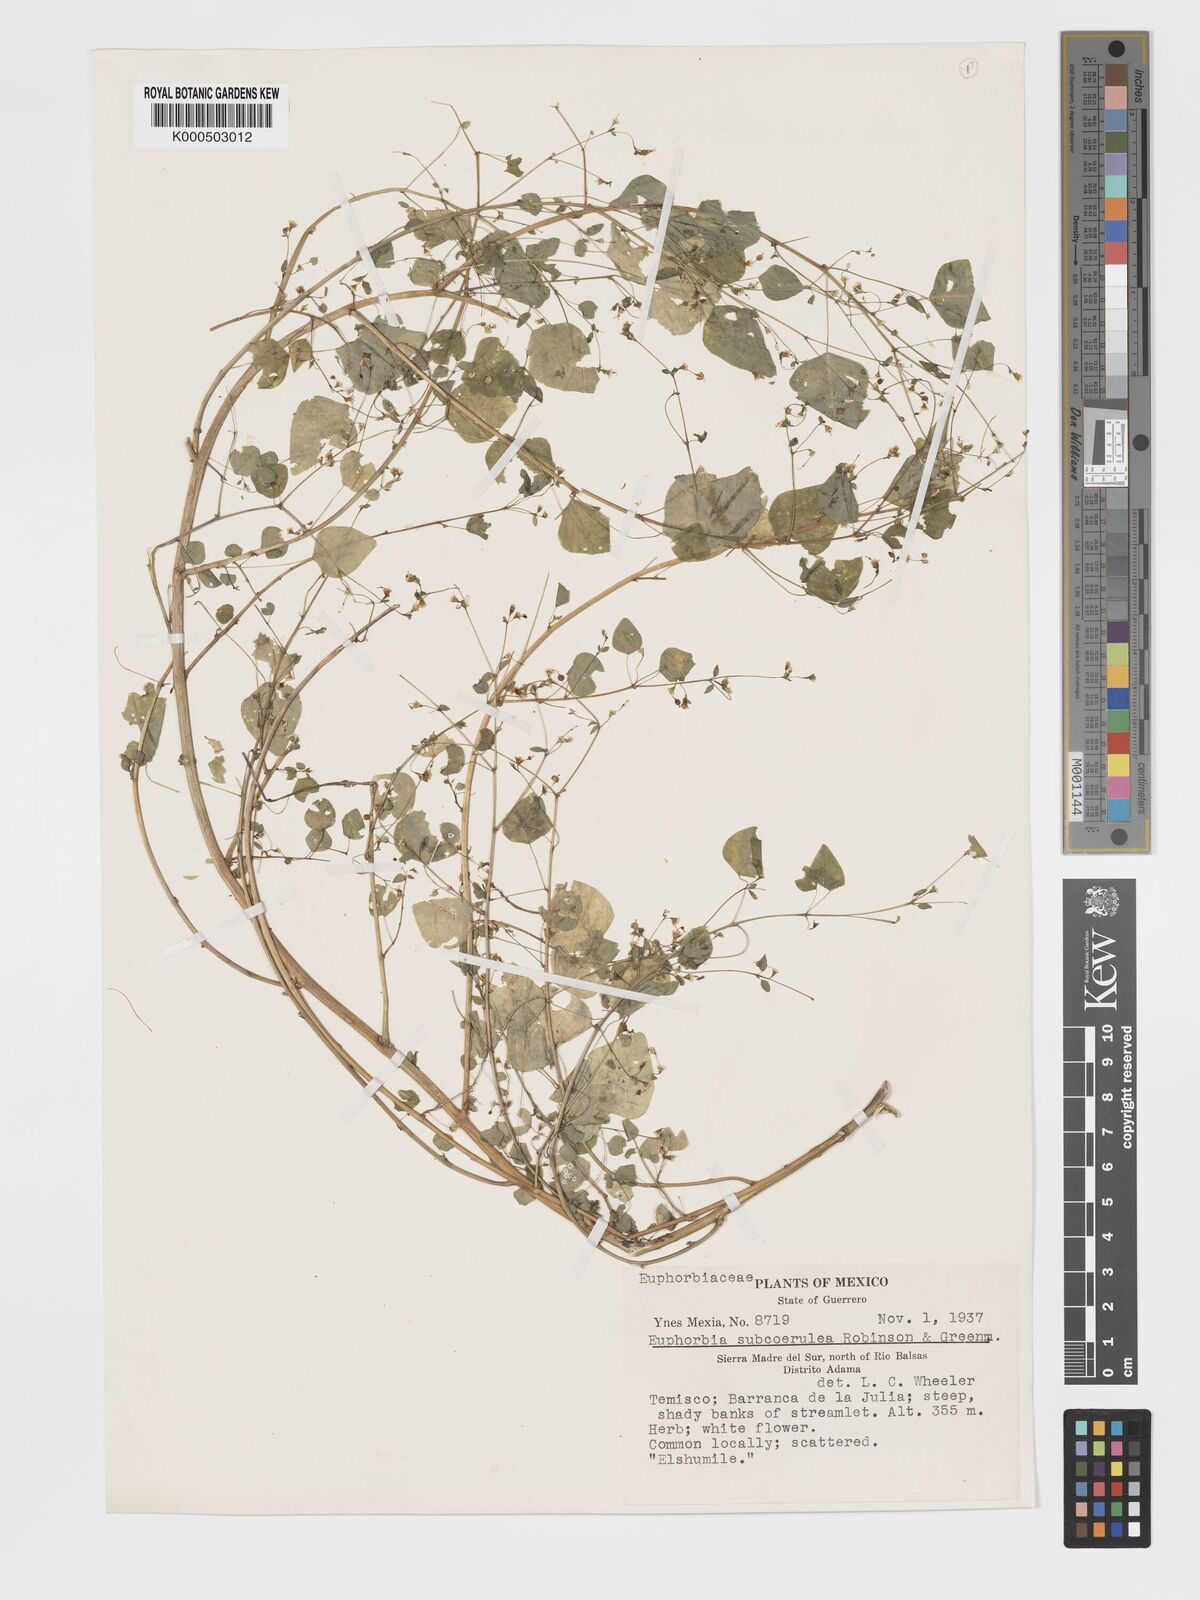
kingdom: Plantae
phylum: Tracheophyta
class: Magnoliopsida
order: Malpighiales
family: Euphorbiaceae
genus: Euphorbia
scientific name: Euphorbia delicatula
